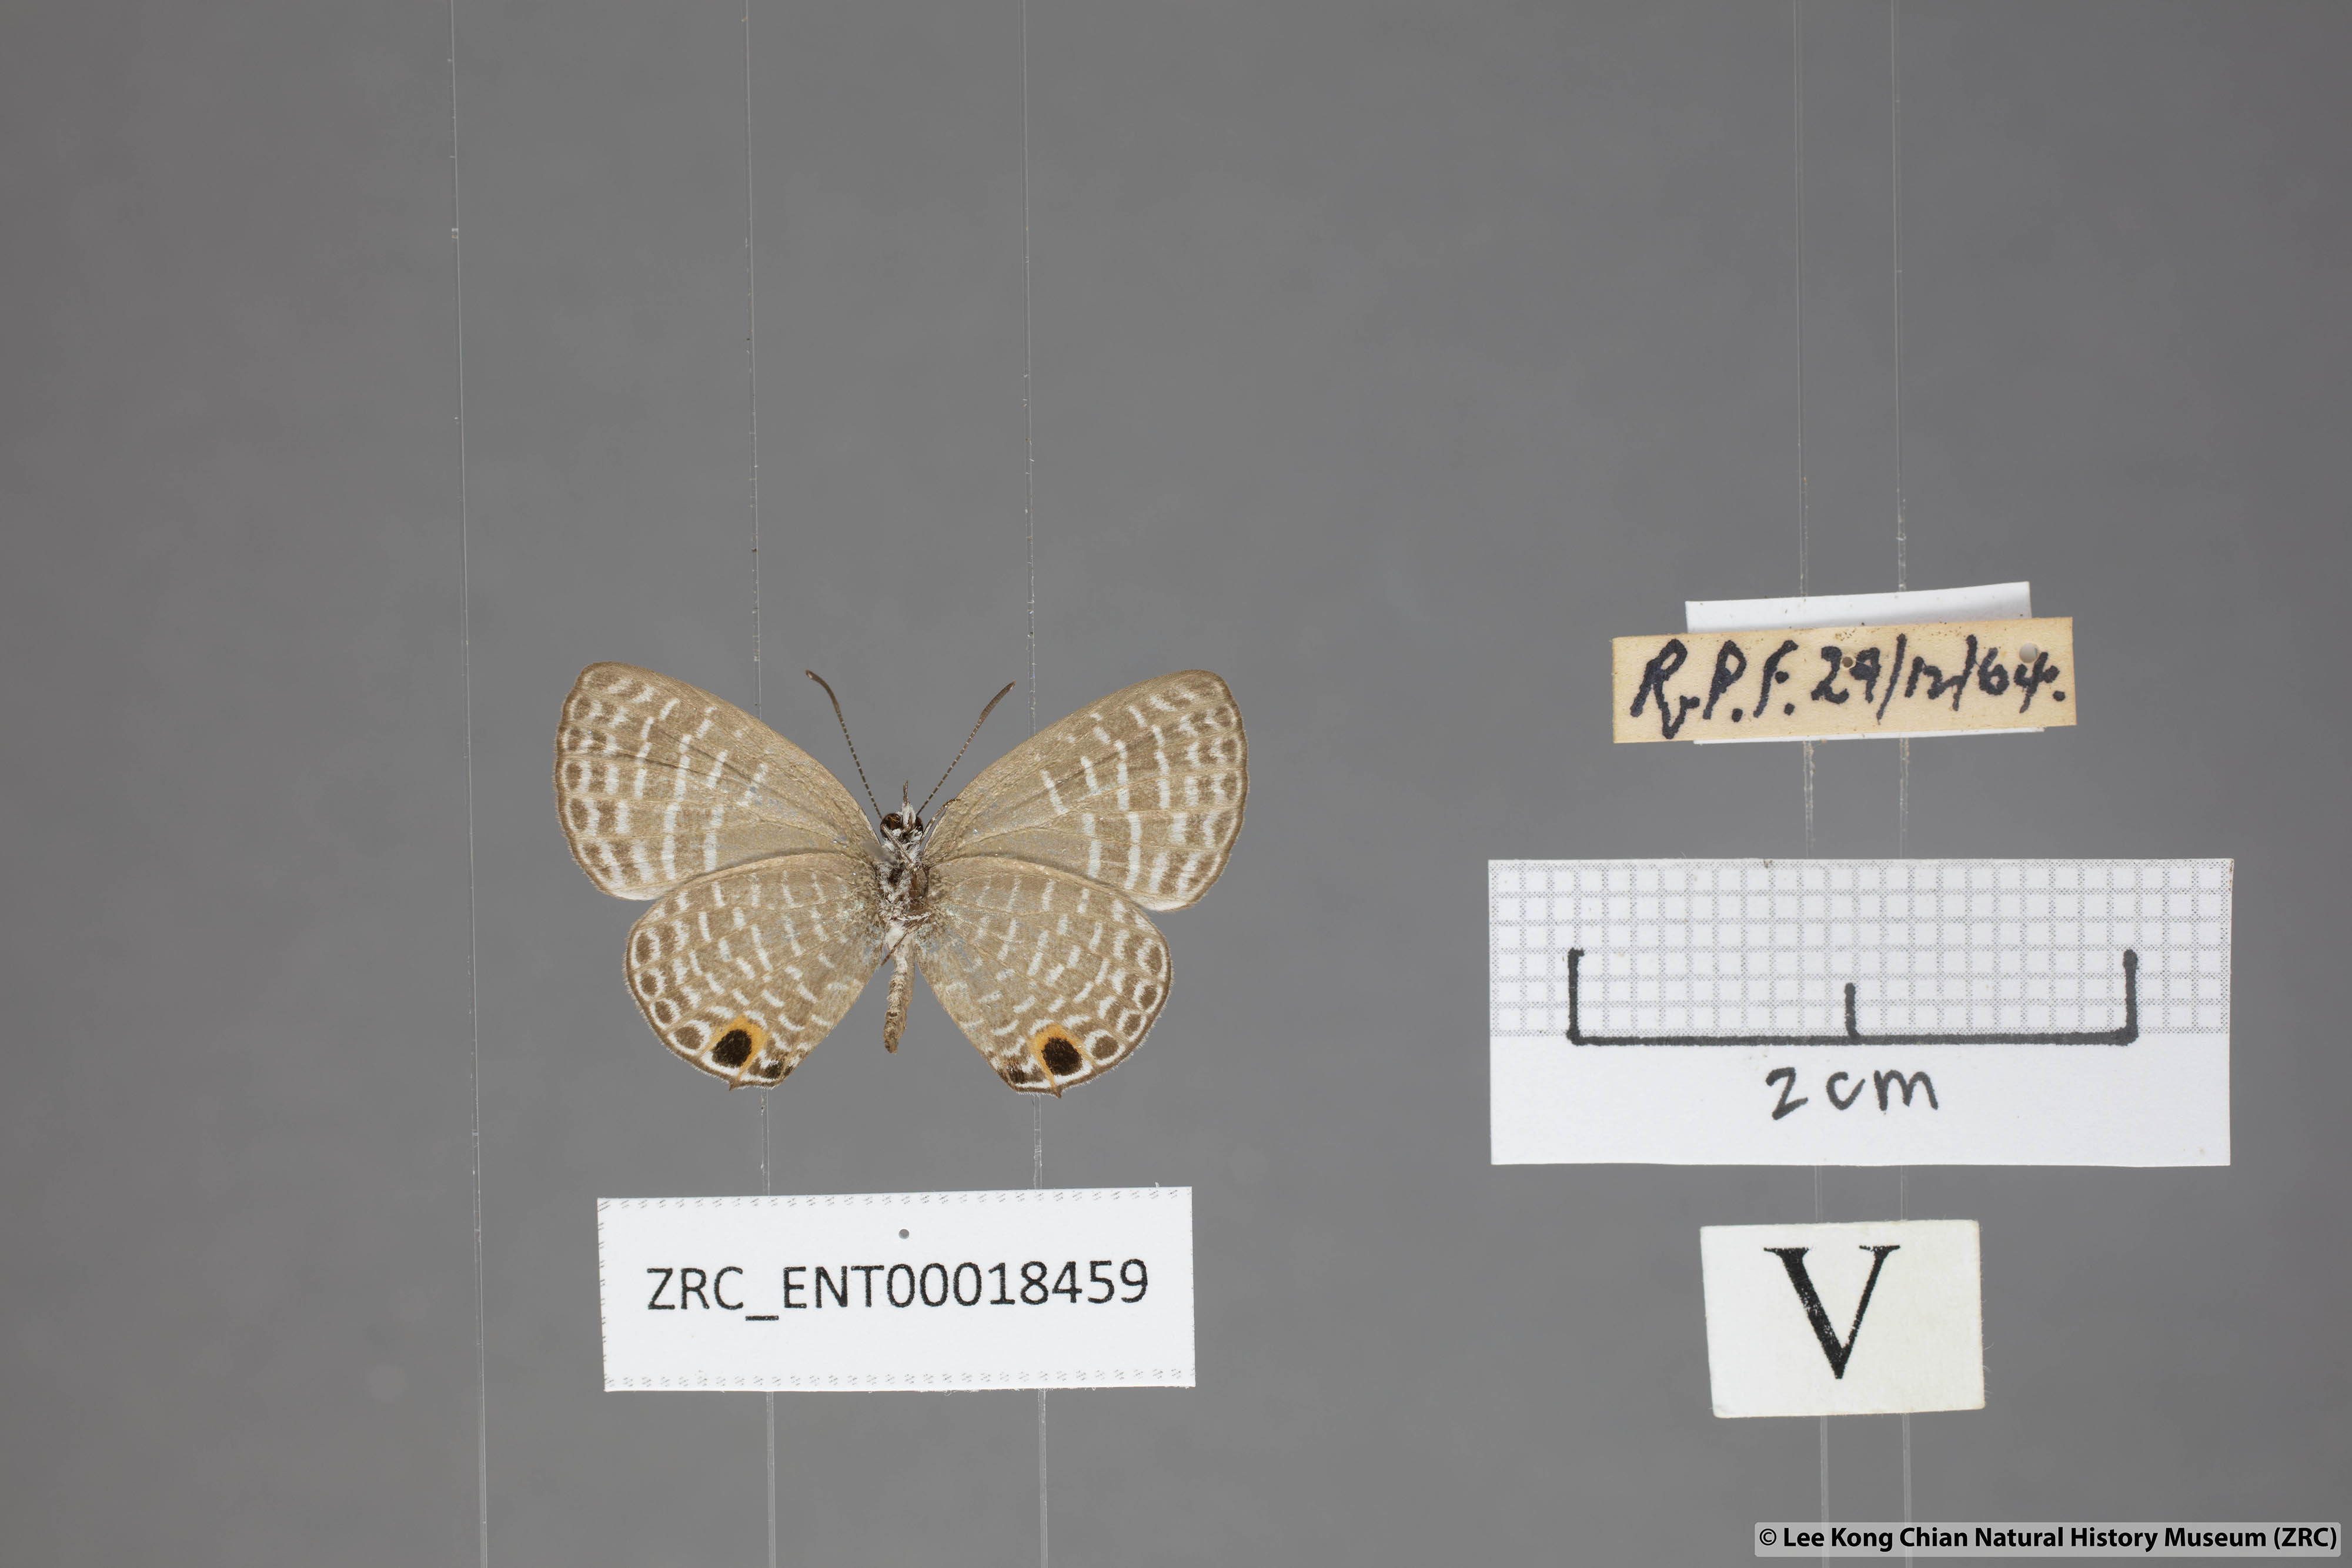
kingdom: Animalia
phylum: Arthropoda
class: Insecta
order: Lepidoptera
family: Lycaenidae
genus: Nacaduba
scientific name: Nacaduba sanaya
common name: Jewel fourline blue
